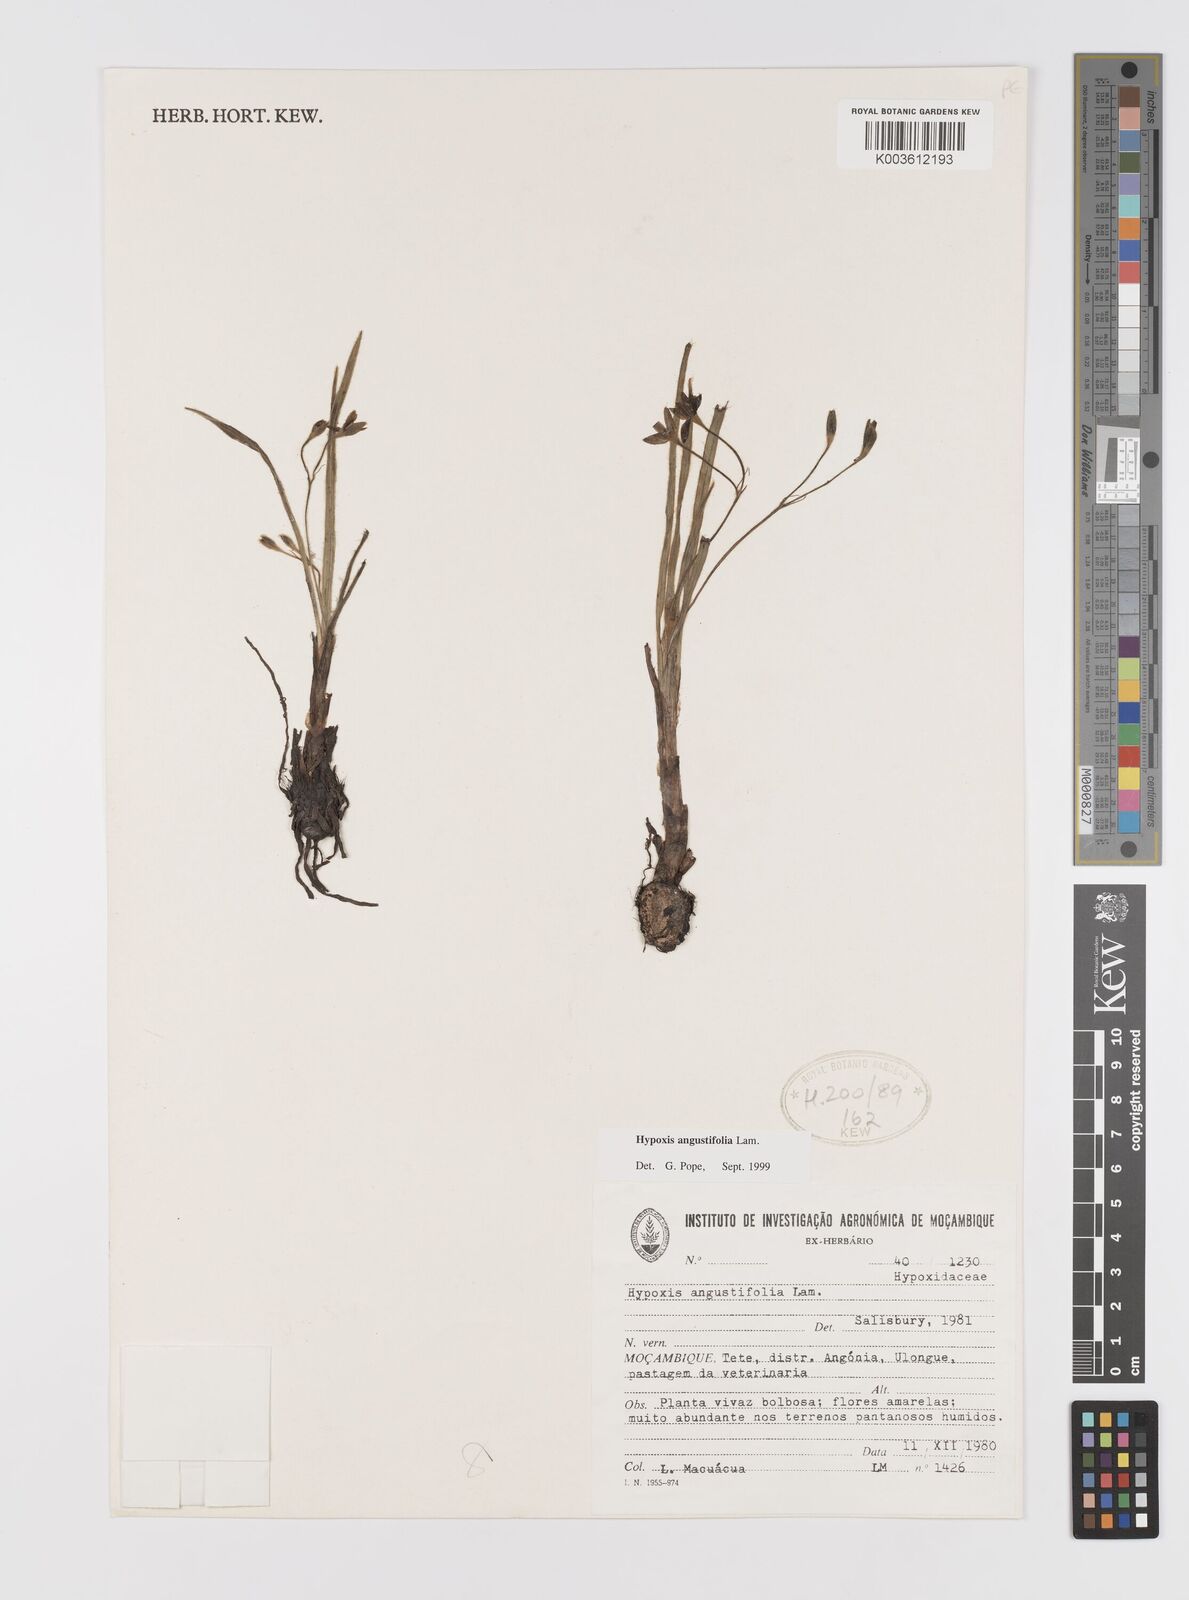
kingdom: Plantae
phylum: Tracheophyta
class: Liliopsida
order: Asparagales
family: Hypoxidaceae
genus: Hypoxis
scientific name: Hypoxis angustifolia
